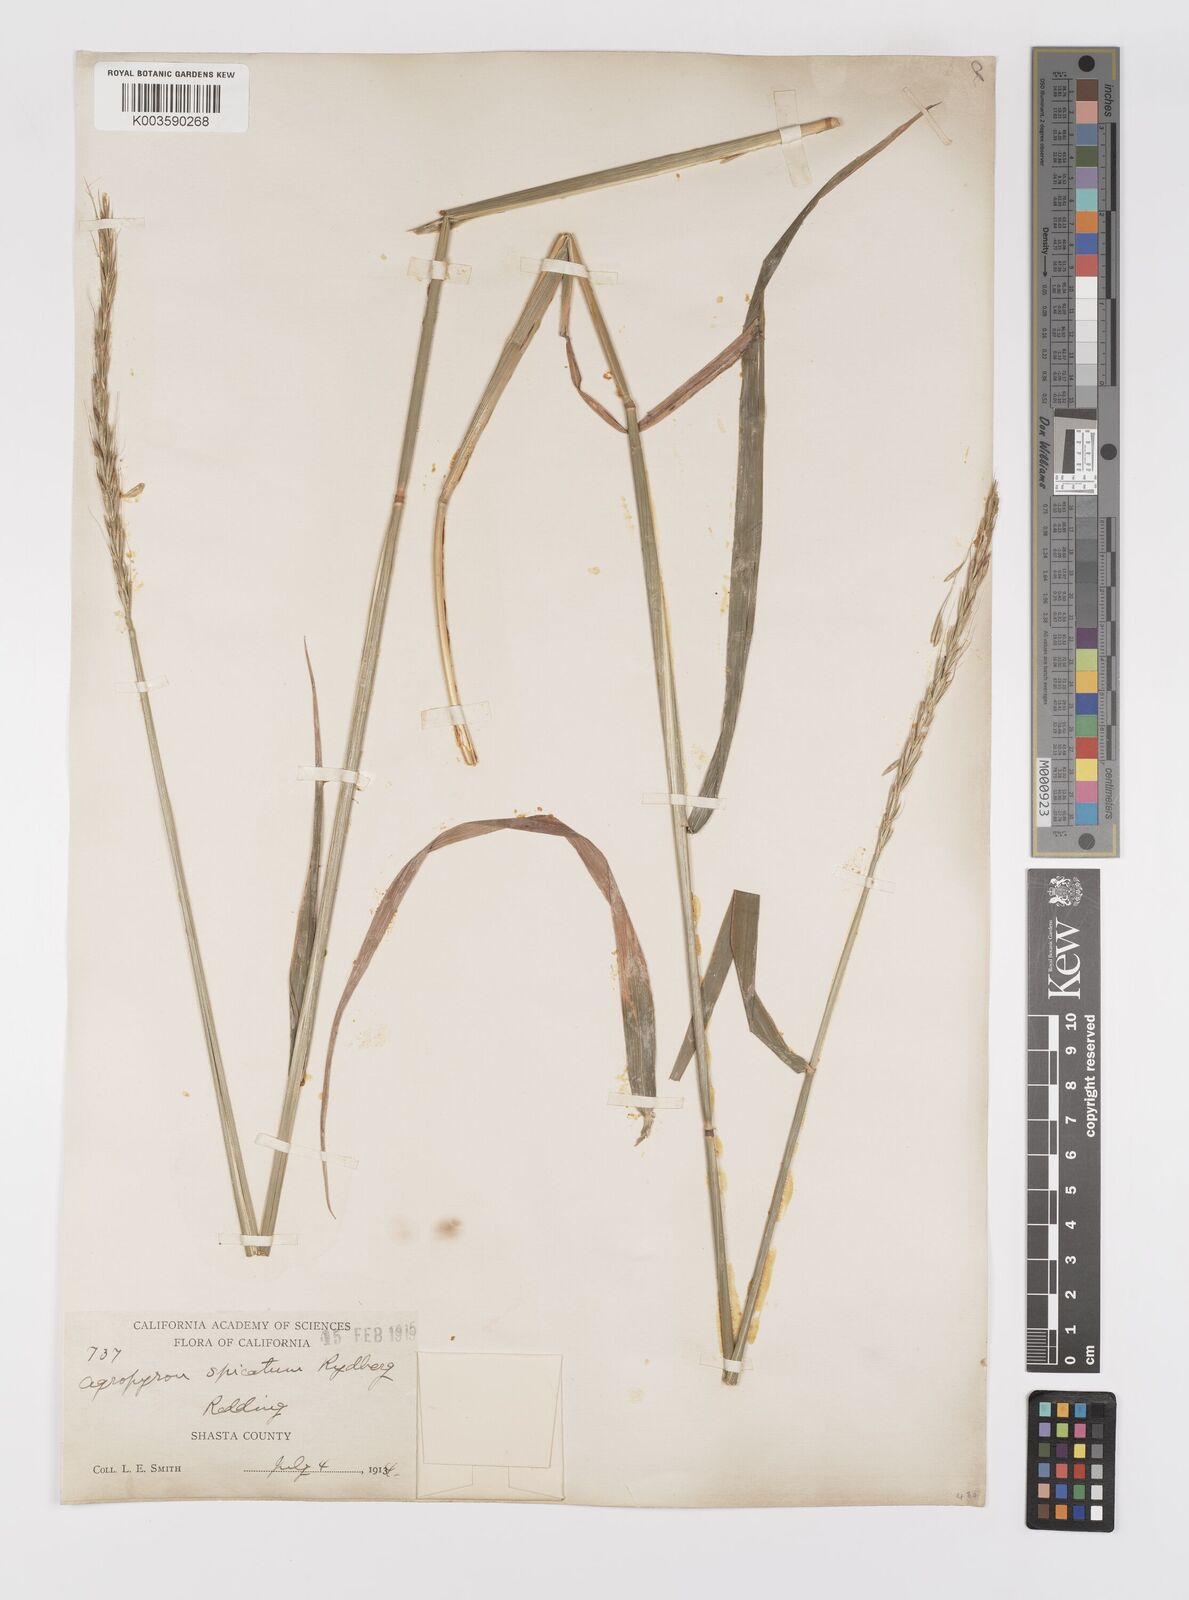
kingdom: Plantae
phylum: Tracheophyta
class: Liliopsida
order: Poales
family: Poaceae
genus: Elymus
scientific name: Elymus
